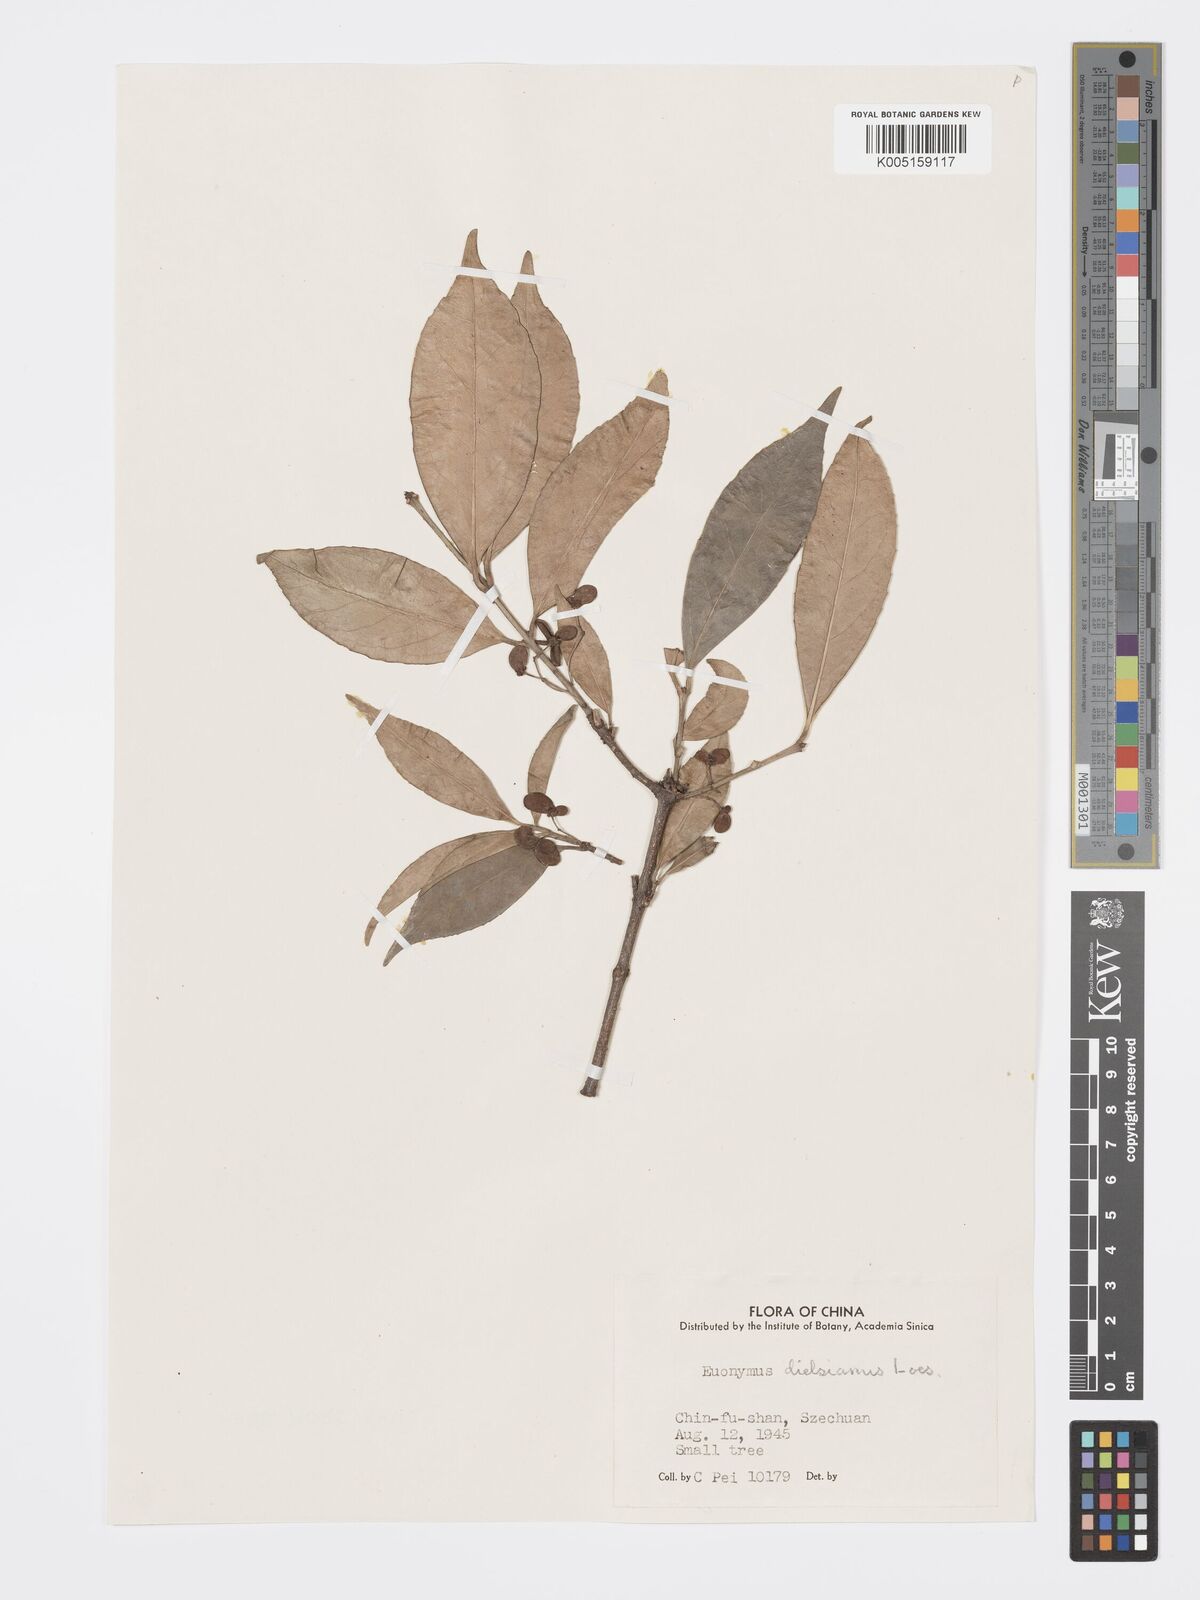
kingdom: Plantae
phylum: Tracheophyta
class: Magnoliopsida
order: Celastrales
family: Celastraceae
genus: Euonymus
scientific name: Euonymus dielsianus
